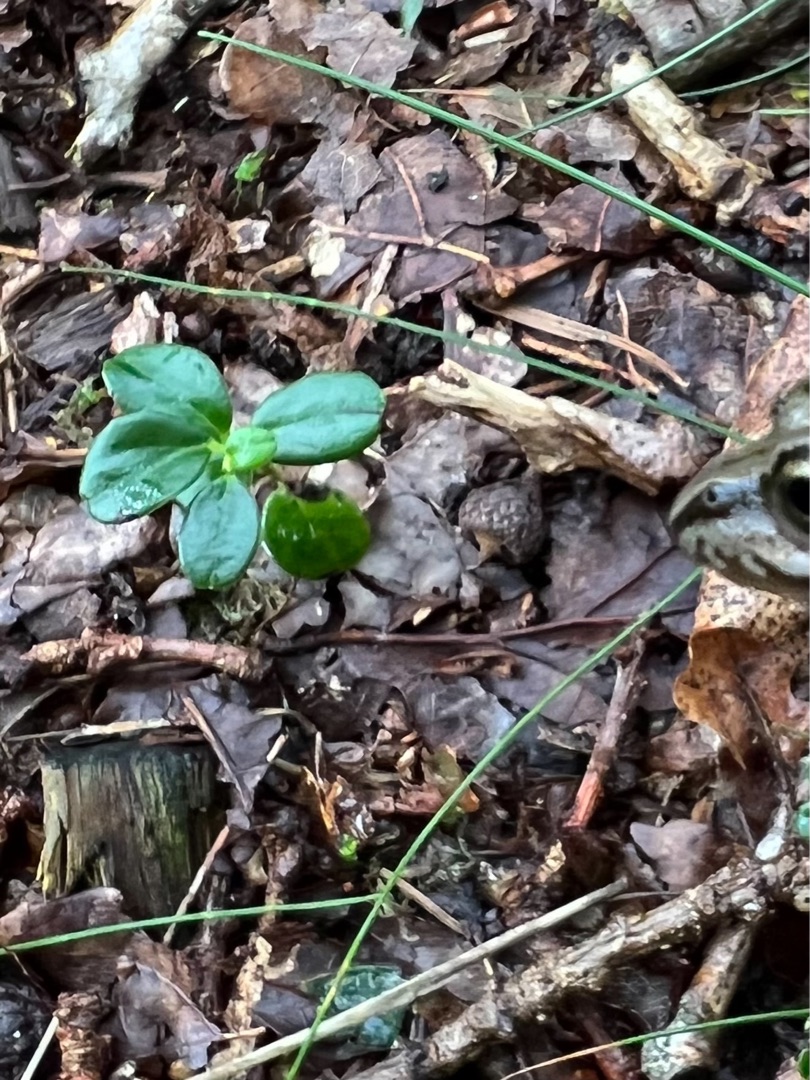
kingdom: Plantae
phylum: Tracheophyta
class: Magnoliopsida
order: Ericales
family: Ericaceae
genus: Vaccinium
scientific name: Vaccinium vitis-idaea
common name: Tyttebær
